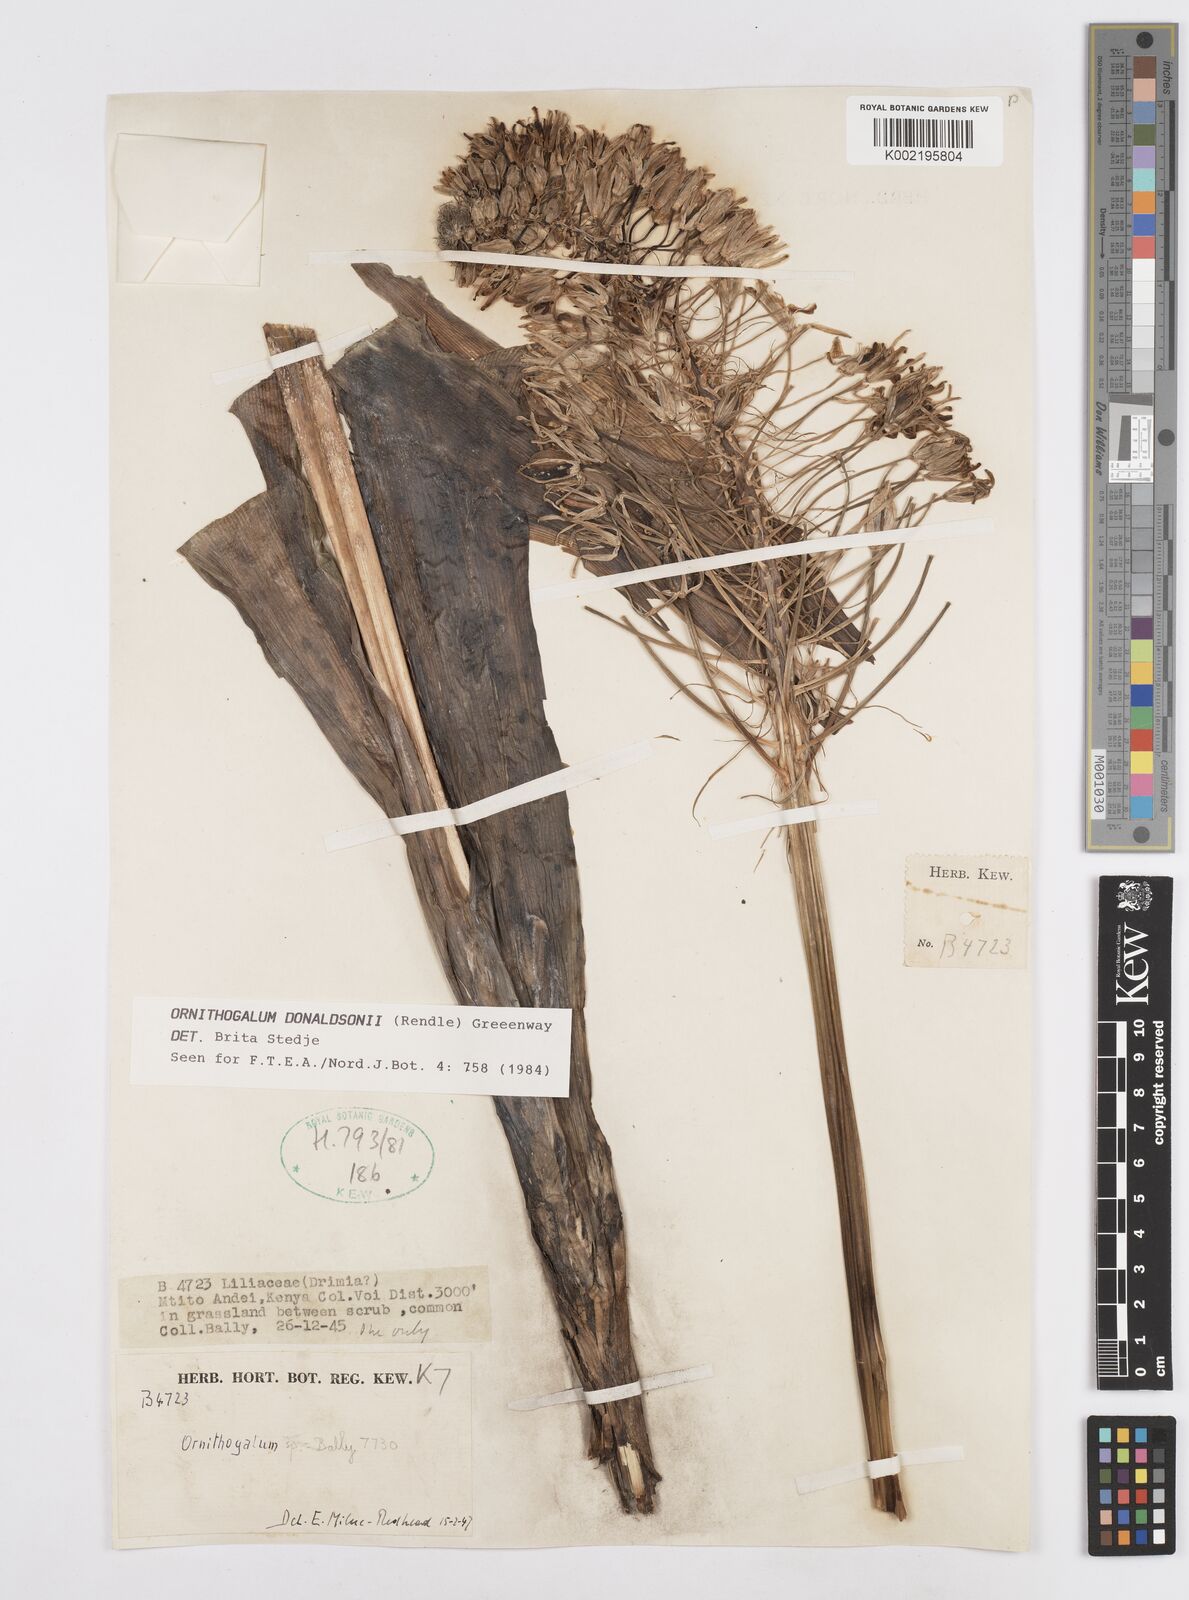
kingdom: Plantae
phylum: Tracheophyta
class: Liliopsida
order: Asparagales
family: Asparagaceae
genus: Albuca
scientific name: Albuca donaldsonii
